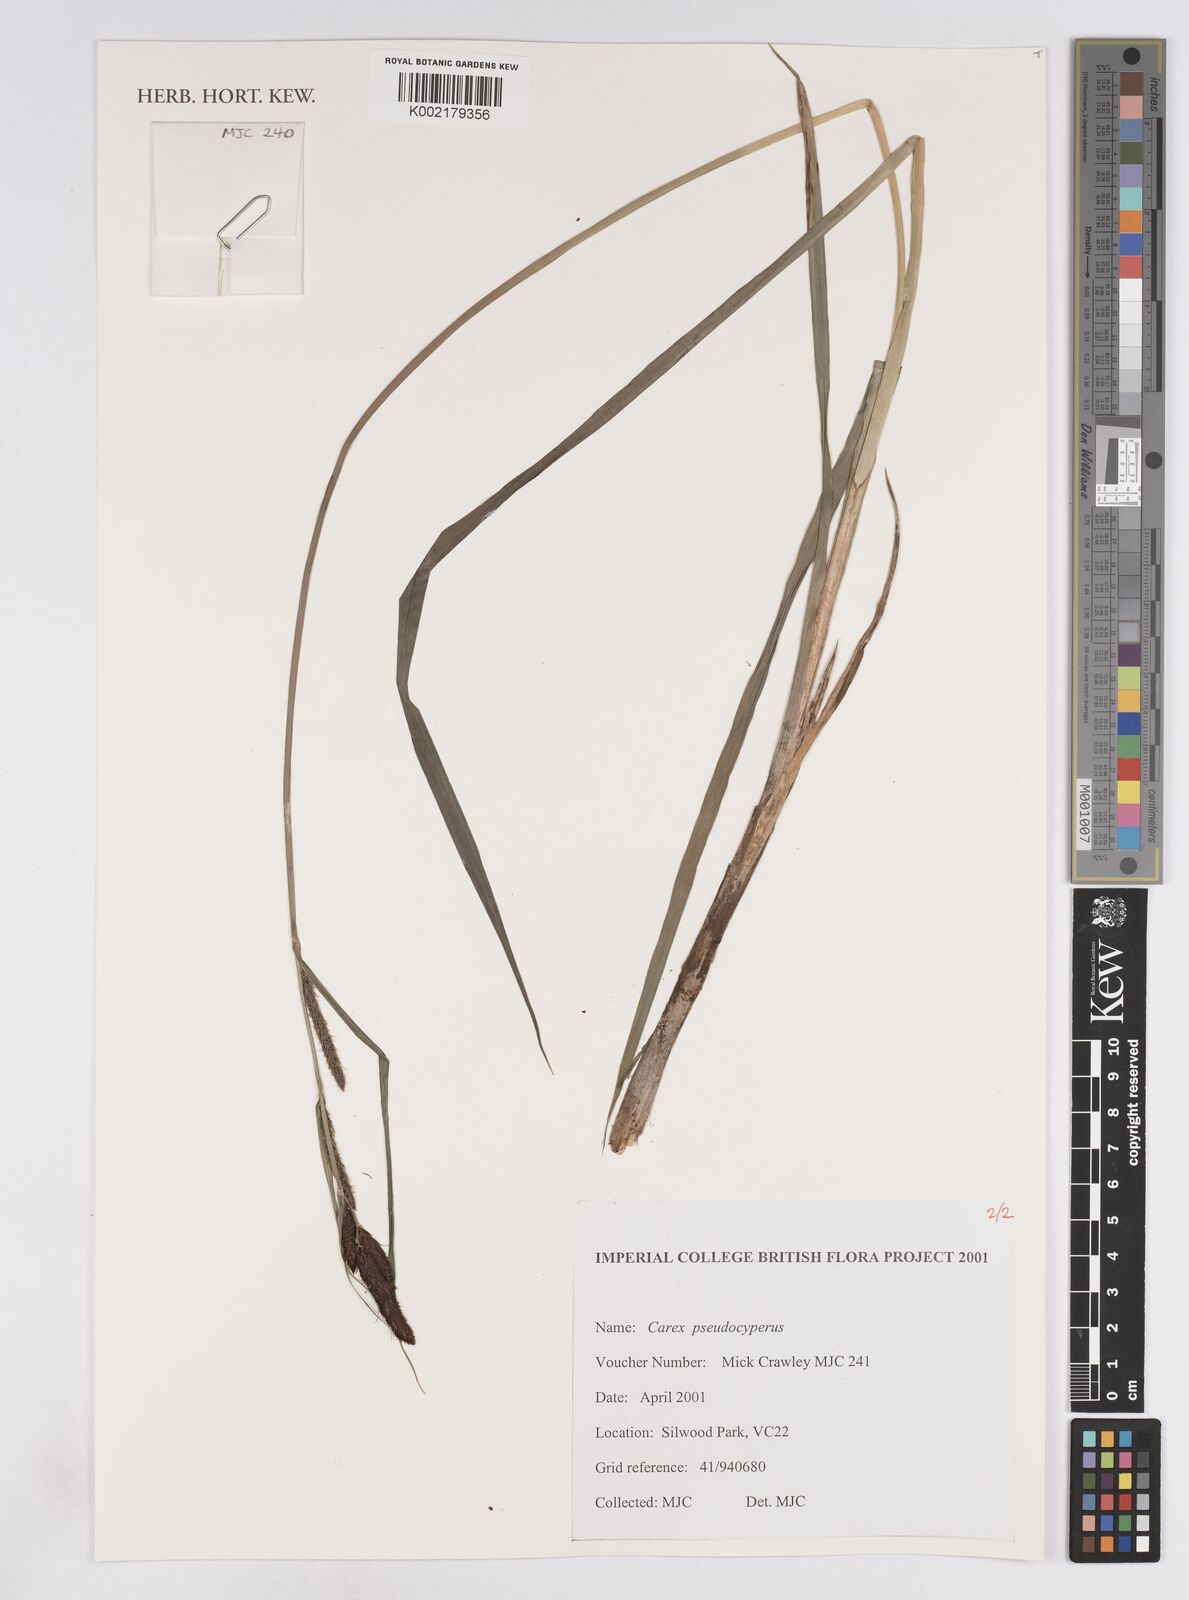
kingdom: Plantae
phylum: Tracheophyta
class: Liliopsida
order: Poales
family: Cyperaceae
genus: Carex
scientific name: Carex pseudocyperus
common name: Cyperus sedge
